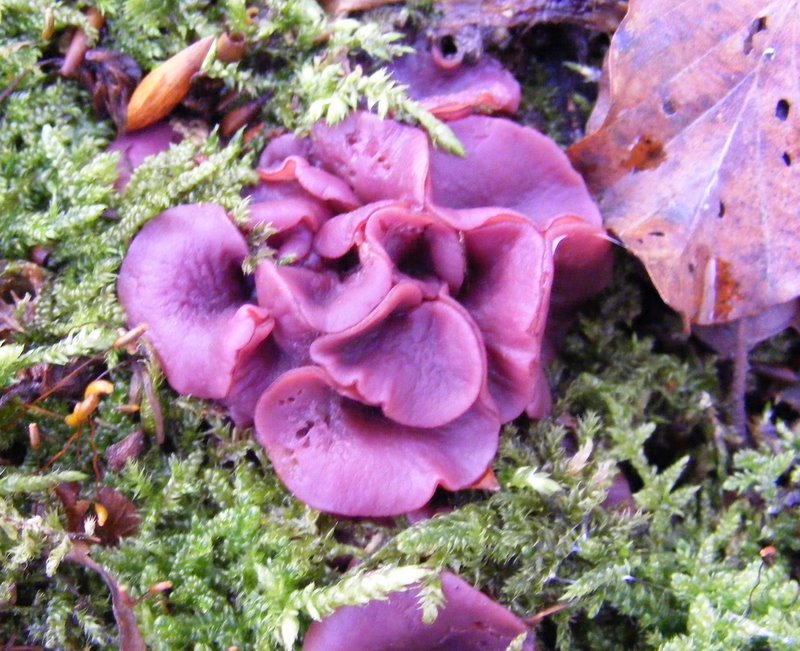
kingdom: Fungi
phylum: Ascomycota
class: Leotiomycetes
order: Helotiales
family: Gelatinodiscaceae
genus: Ascocoryne
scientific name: Ascocoryne cylichnium
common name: stor sejskive
